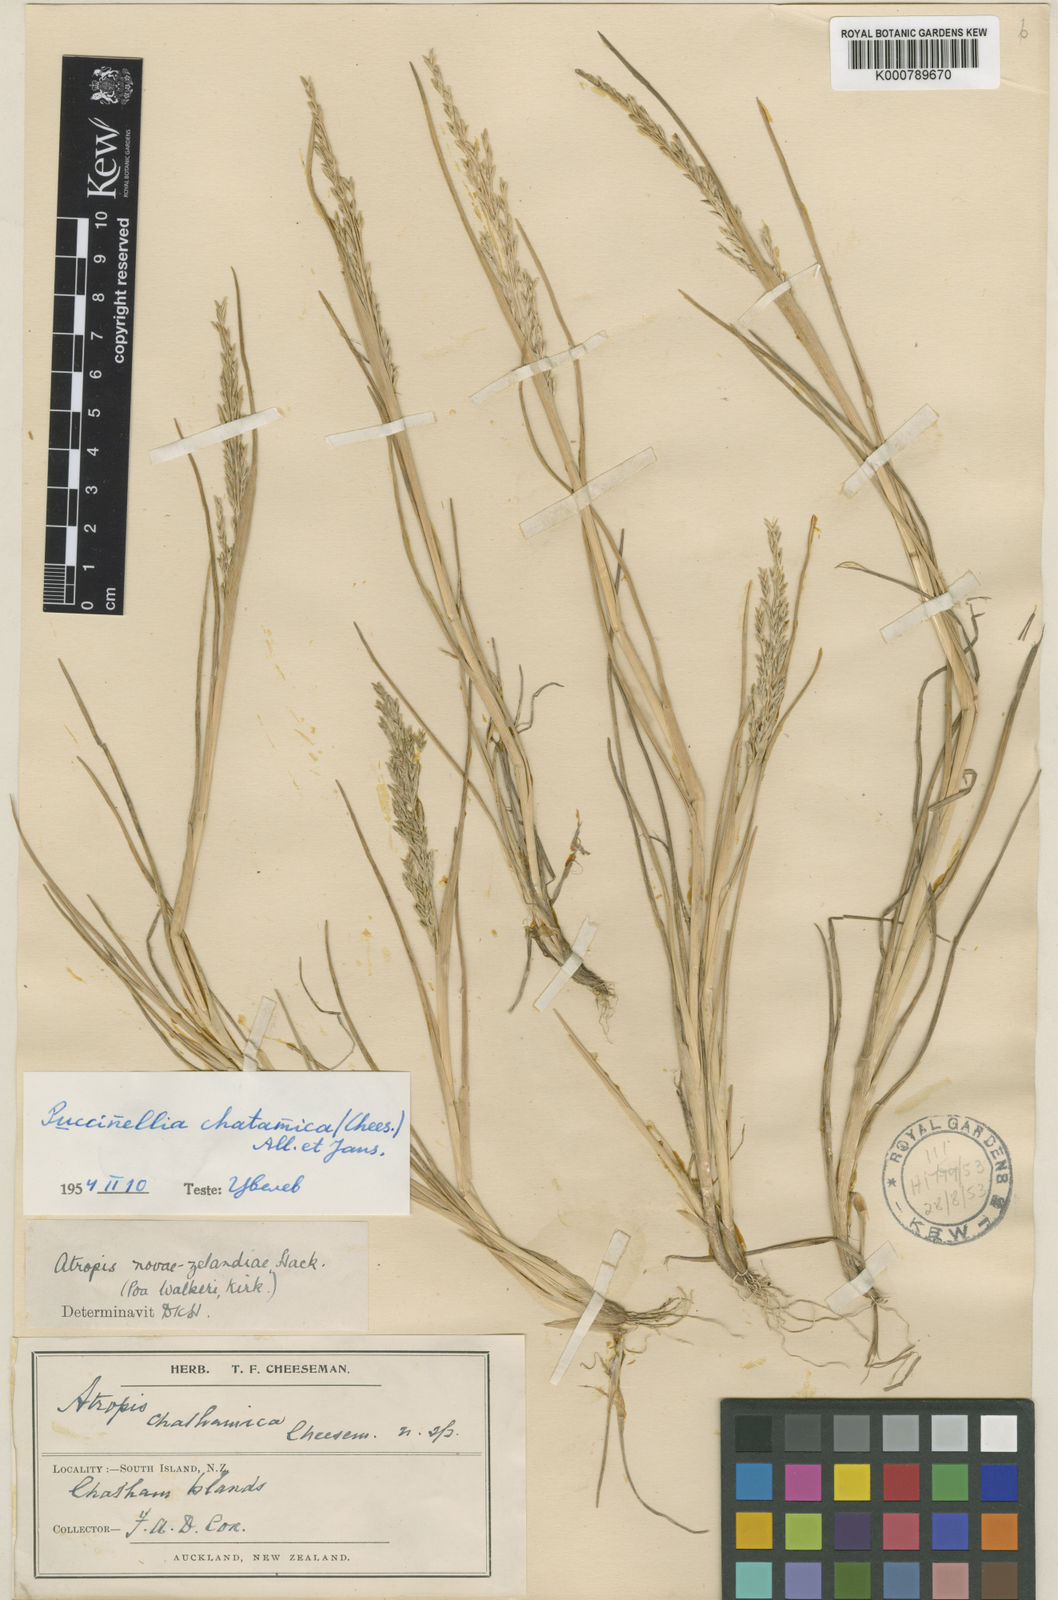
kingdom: Plantae
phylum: Tracheophyta
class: Liliopsida
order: Poales
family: Poaceae
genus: Puccinellia
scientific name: Puccinellia walkeri
